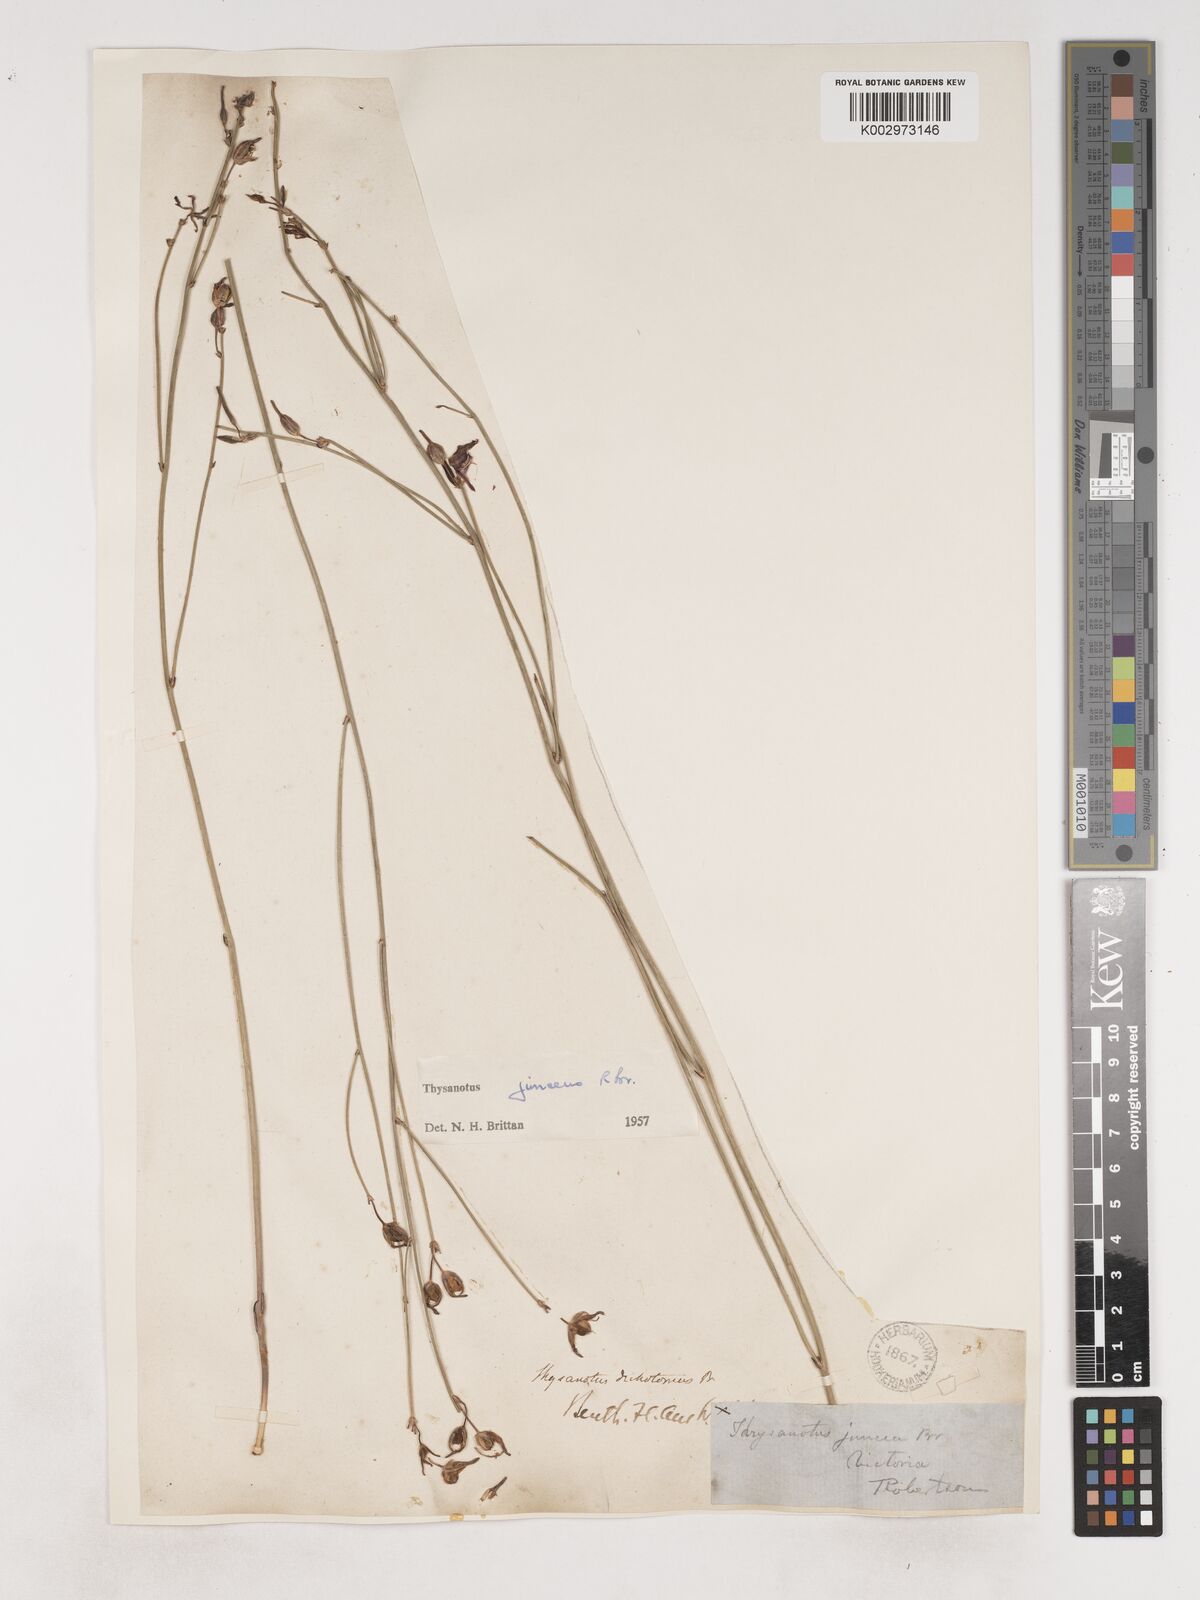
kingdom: Plantae
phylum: Tracheophyta
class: Liliopsida
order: Asparagales
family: Asparagaceae
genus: Thysanotus
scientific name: Thysanotus juncifolius
